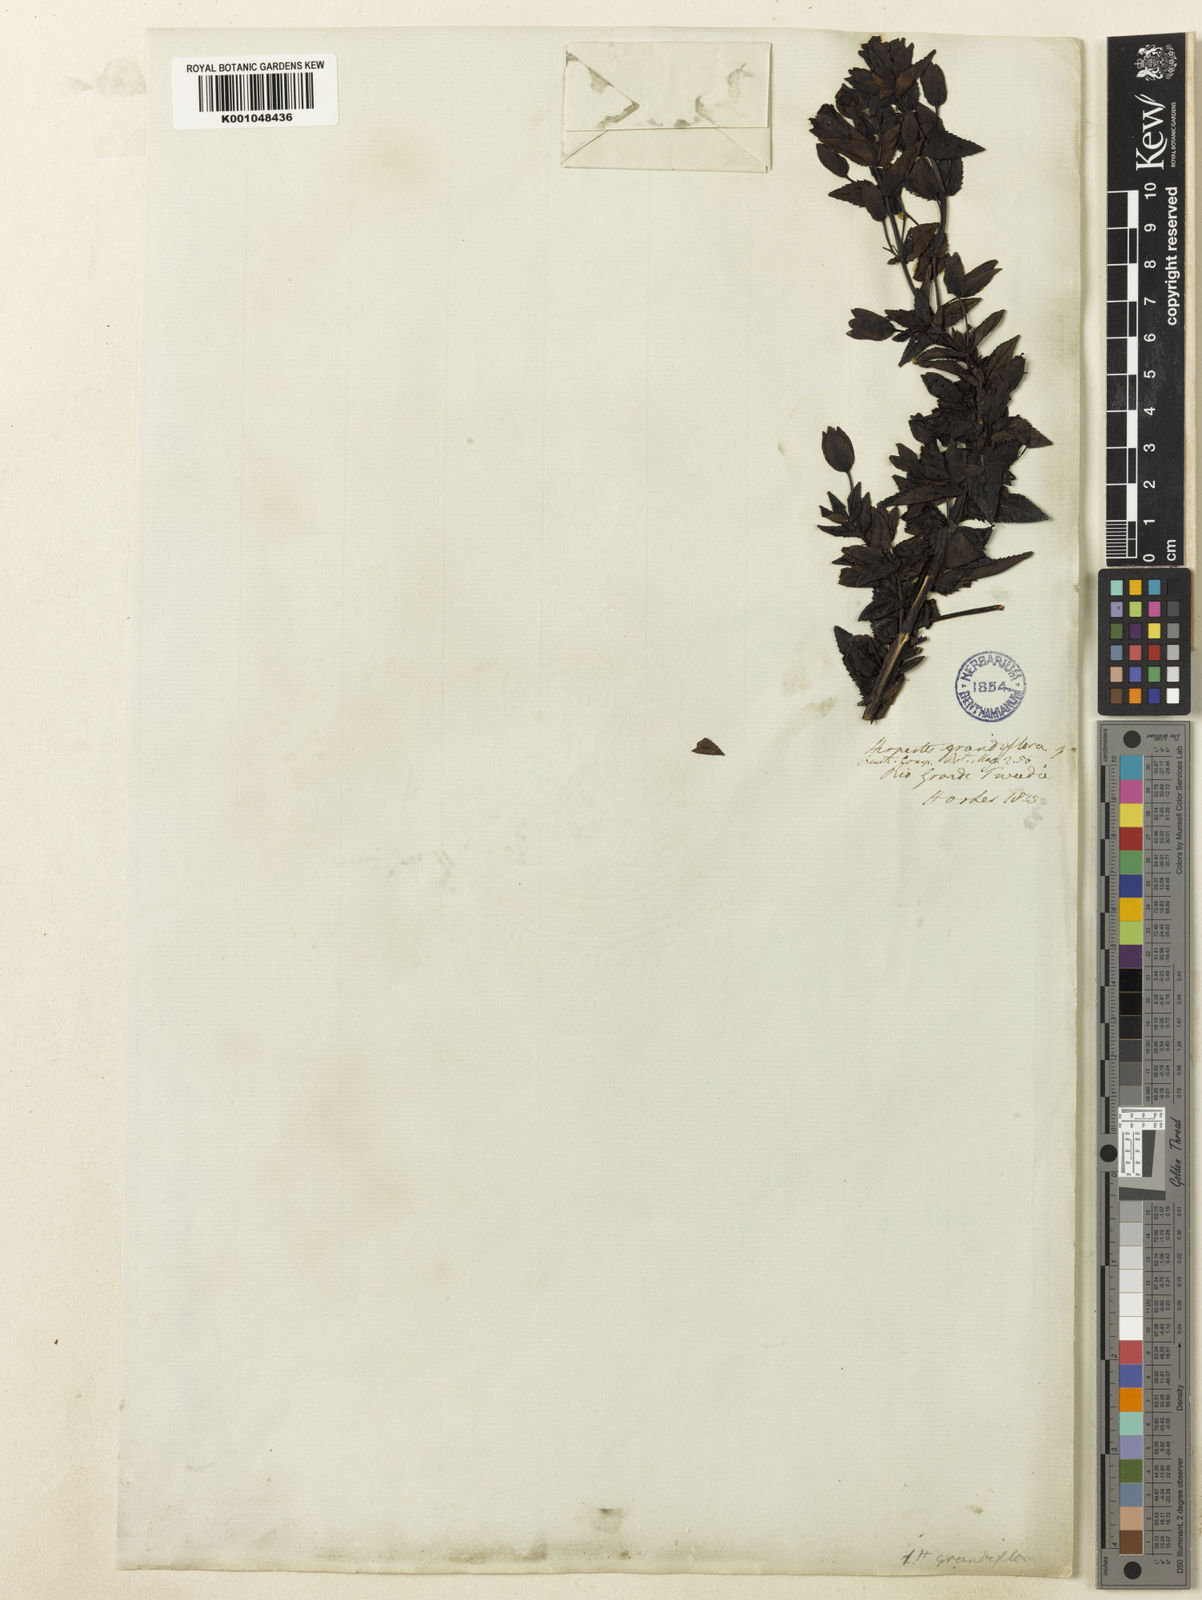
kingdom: Plantae
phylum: Tracheophyta
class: Magnoliopsida
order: Lamiales
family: Plantaginaceae
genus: Mecardonia
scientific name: Mecardonia grandiflora
